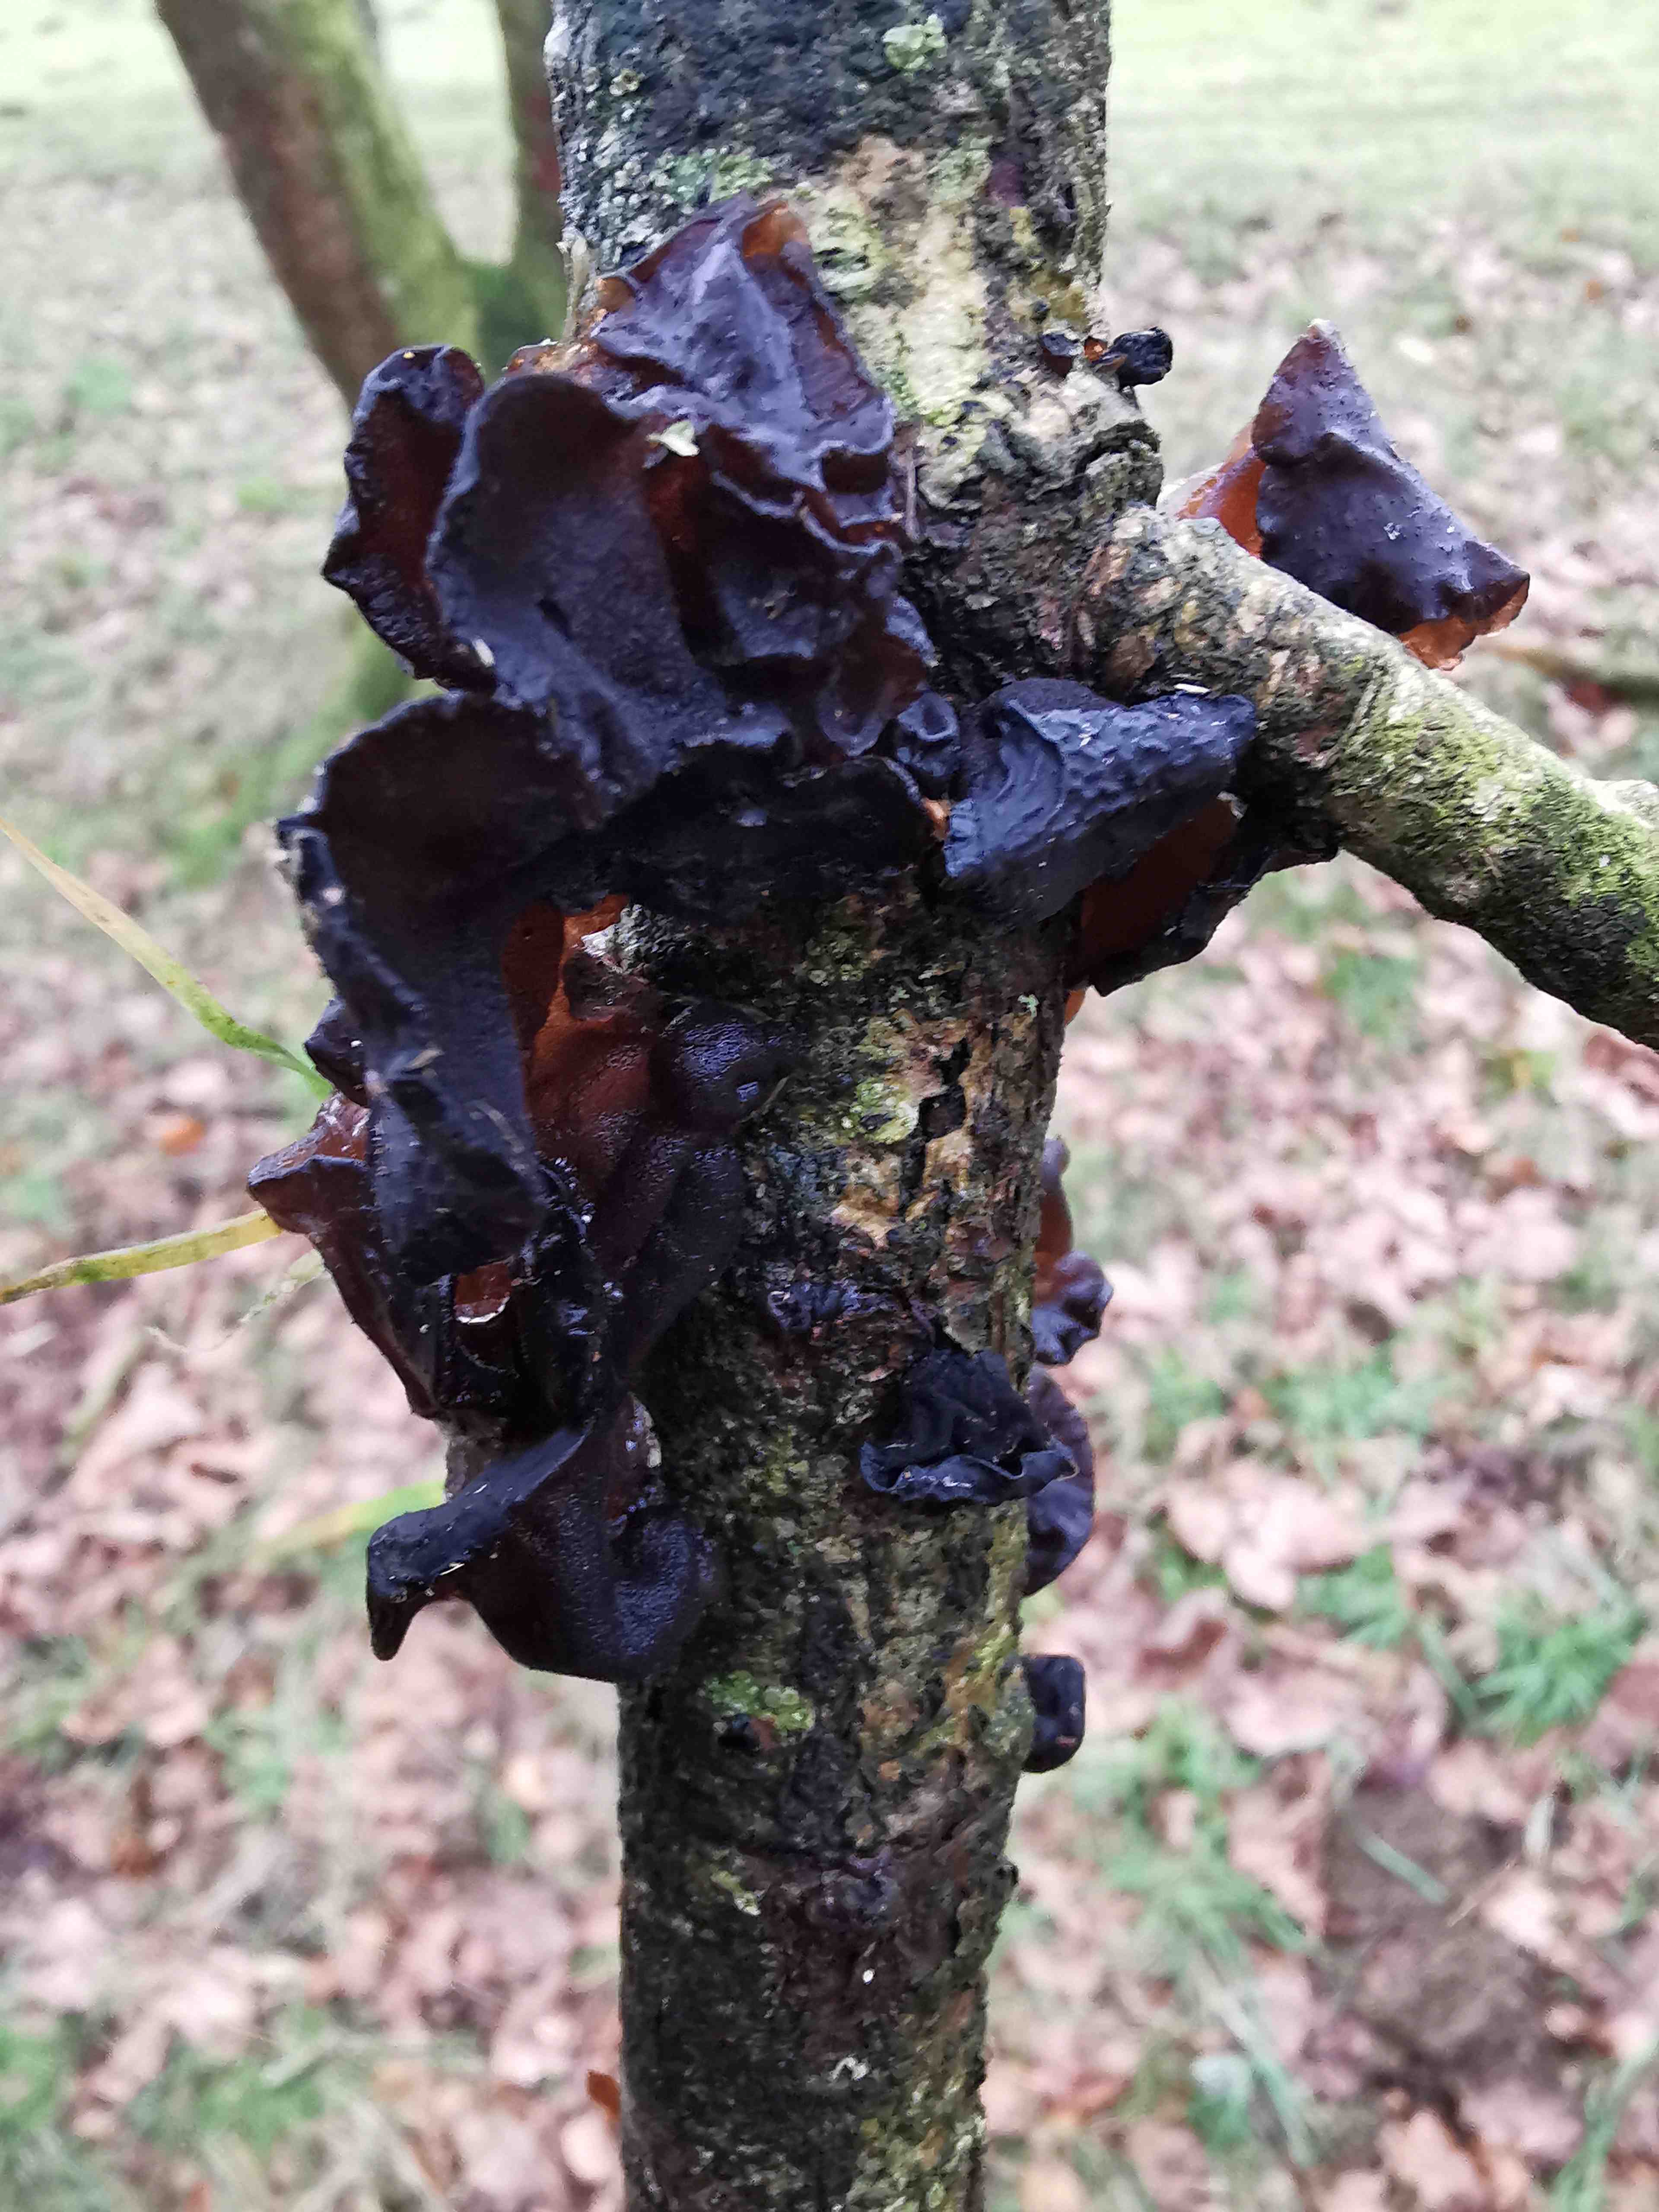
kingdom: Fungi
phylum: Basidiomycota
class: Agaricomycetes
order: Auriculariales
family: Auriculariaceae
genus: Exidia
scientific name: Exidia glandulosa
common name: ege-bævretop
